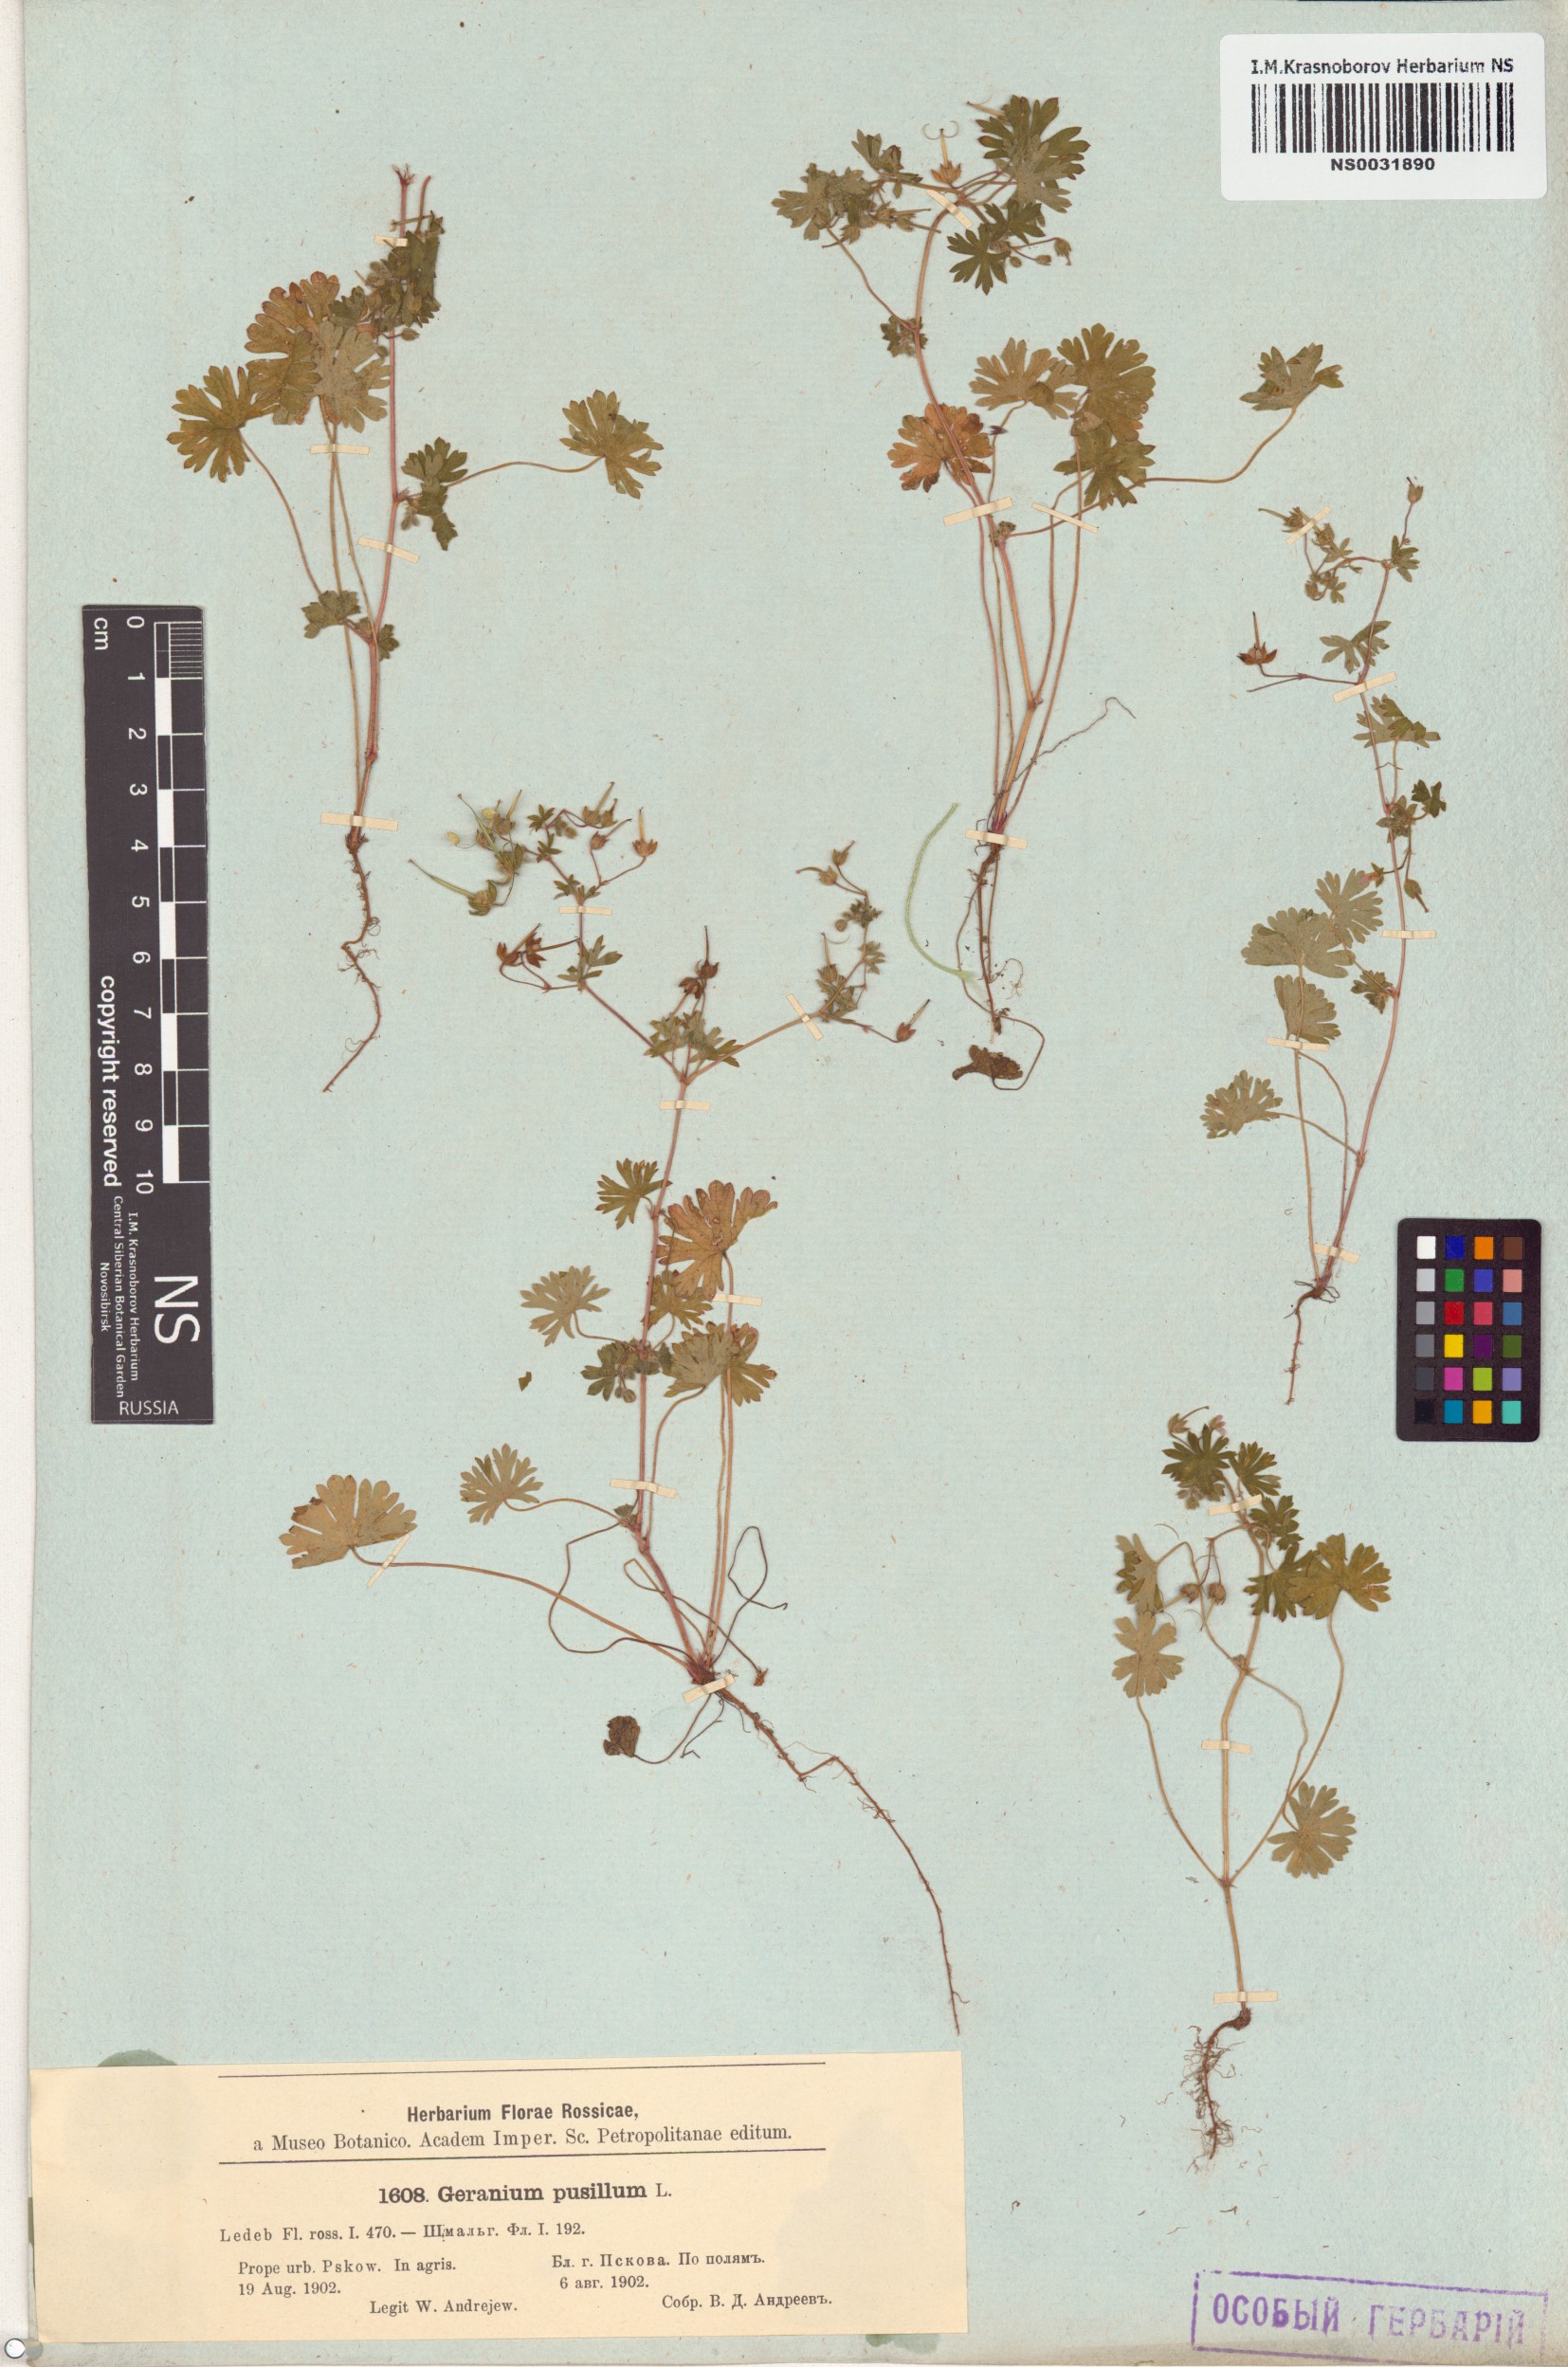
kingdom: Plantae
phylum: Tracheophyta
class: Magnoliopsida
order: Geraniales
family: Geraniaceae
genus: Geranium
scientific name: Geranium pusillum
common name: Small geranium
